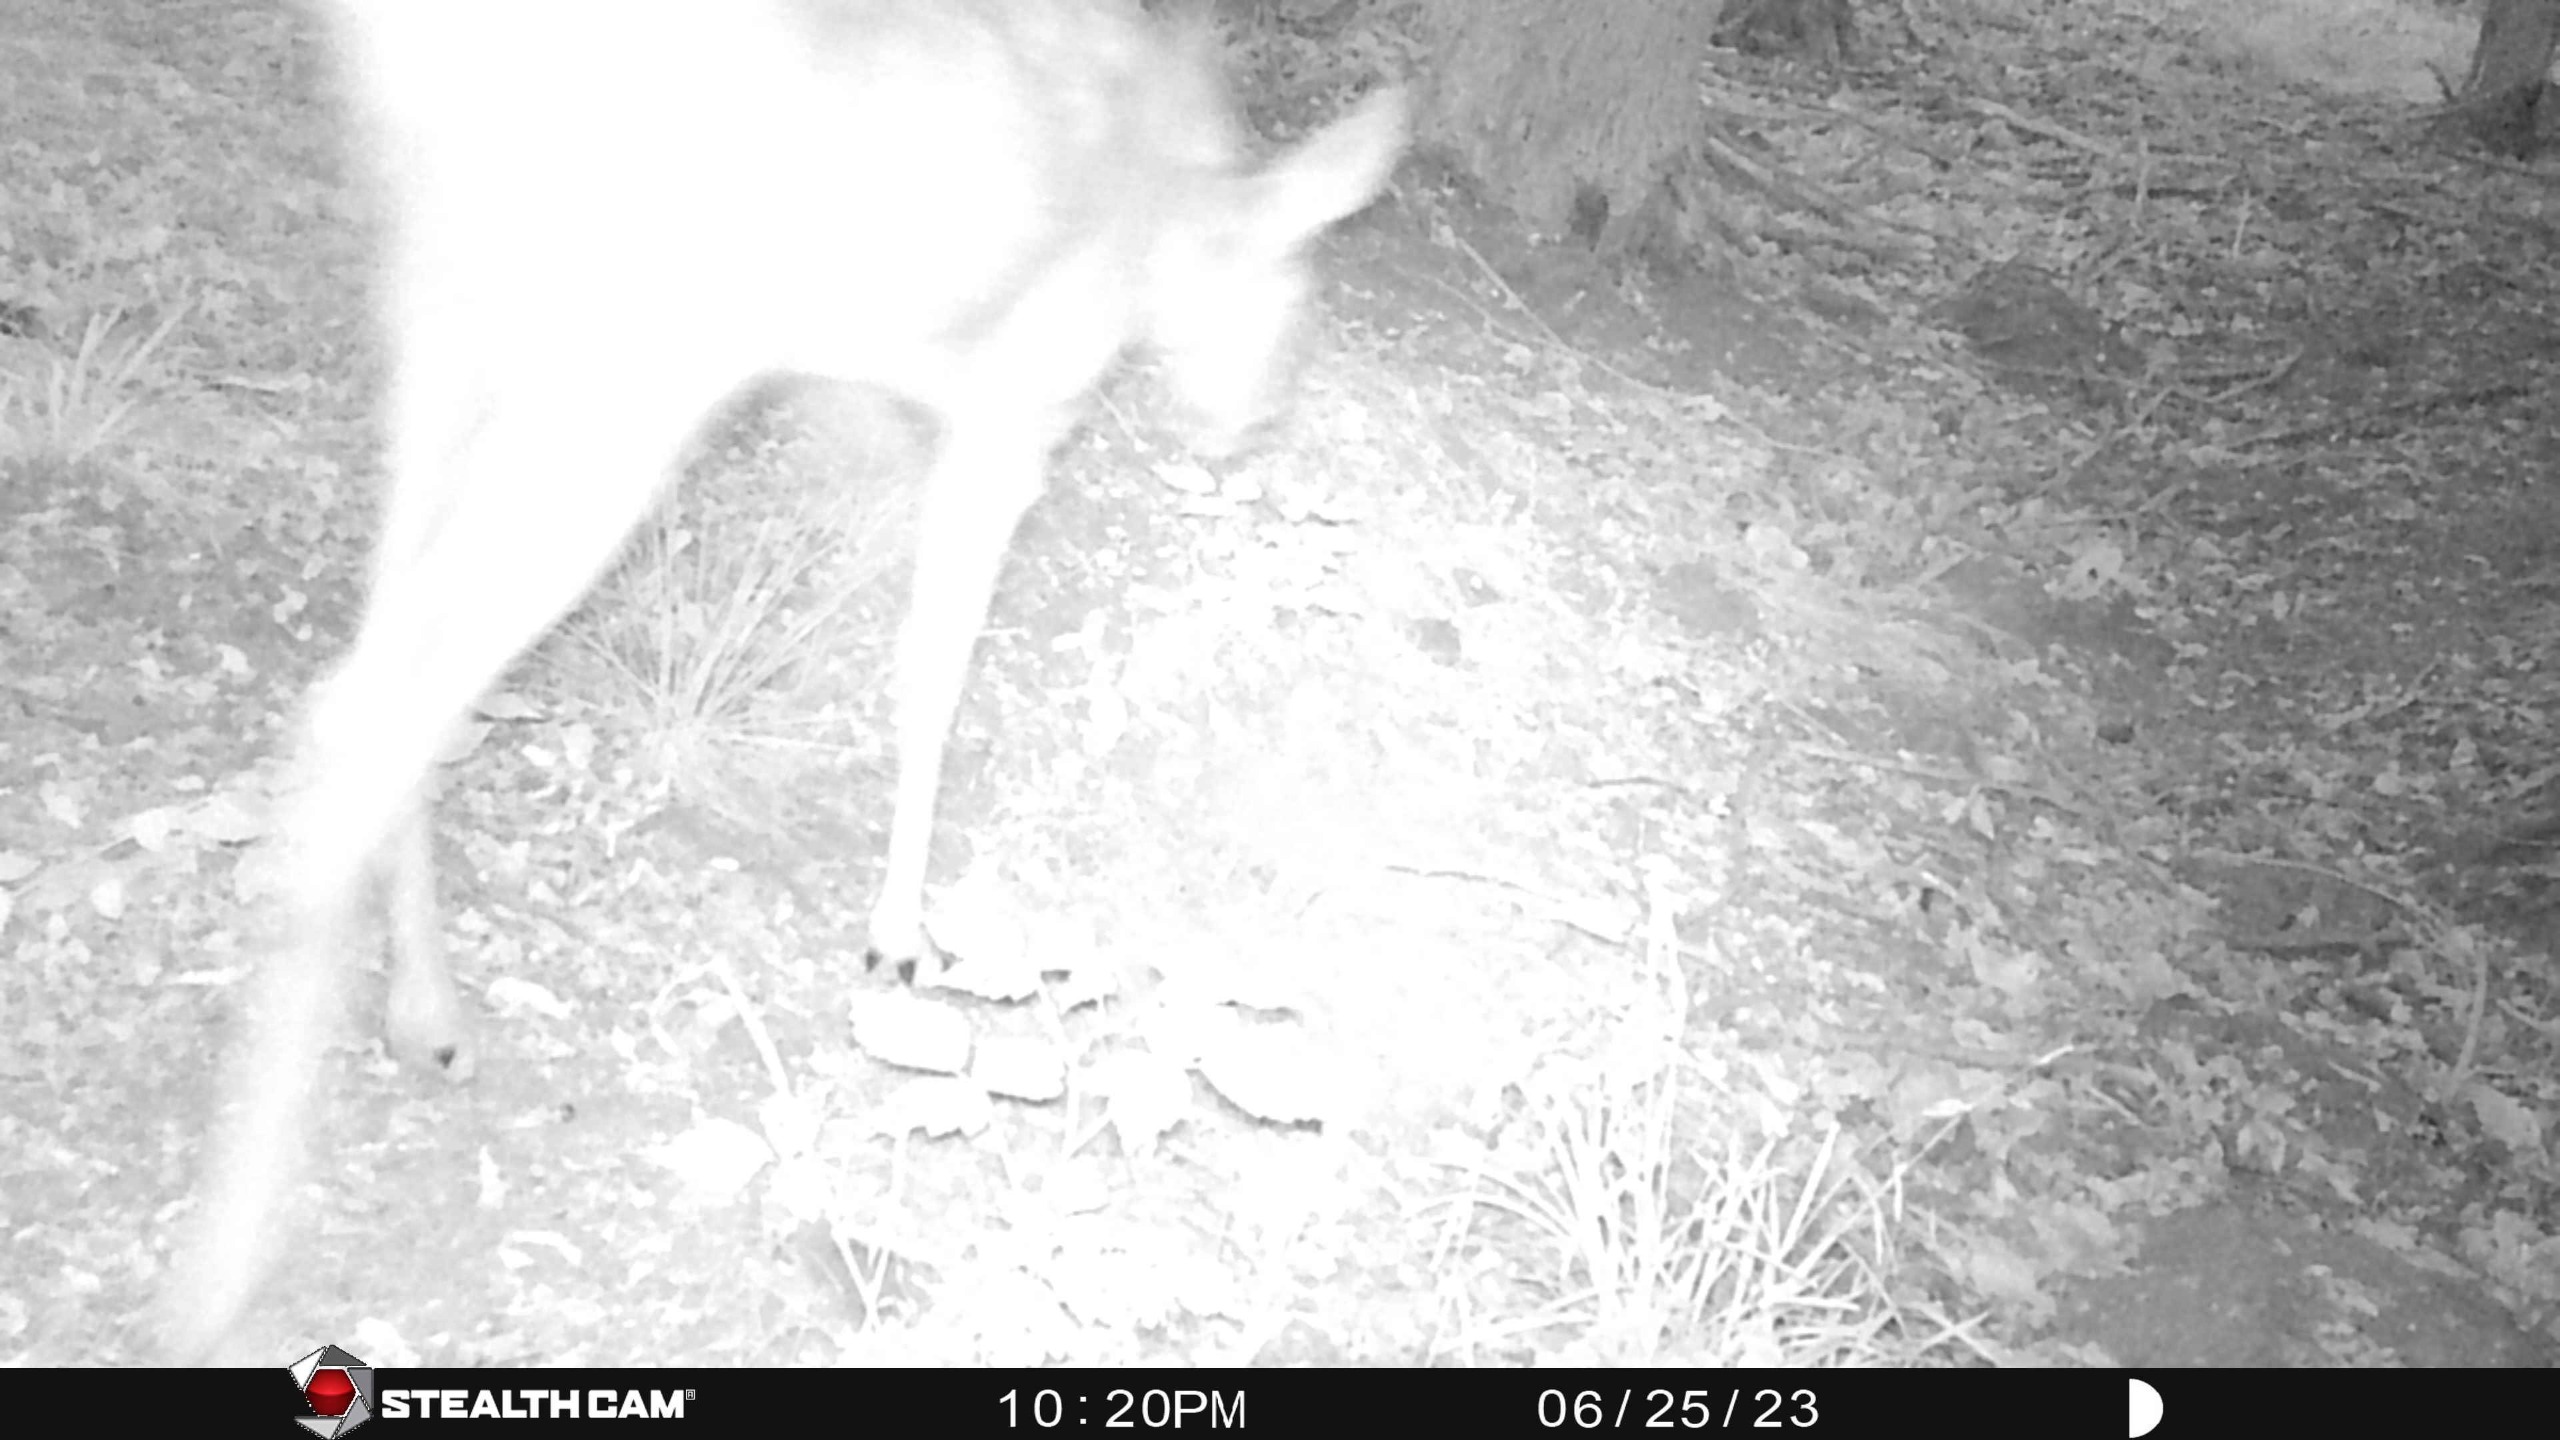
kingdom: Animalia
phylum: Chordata
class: Mammalia
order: Artiodactyla
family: Cervidae
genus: Dama
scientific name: Dama dama
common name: Dådyr
